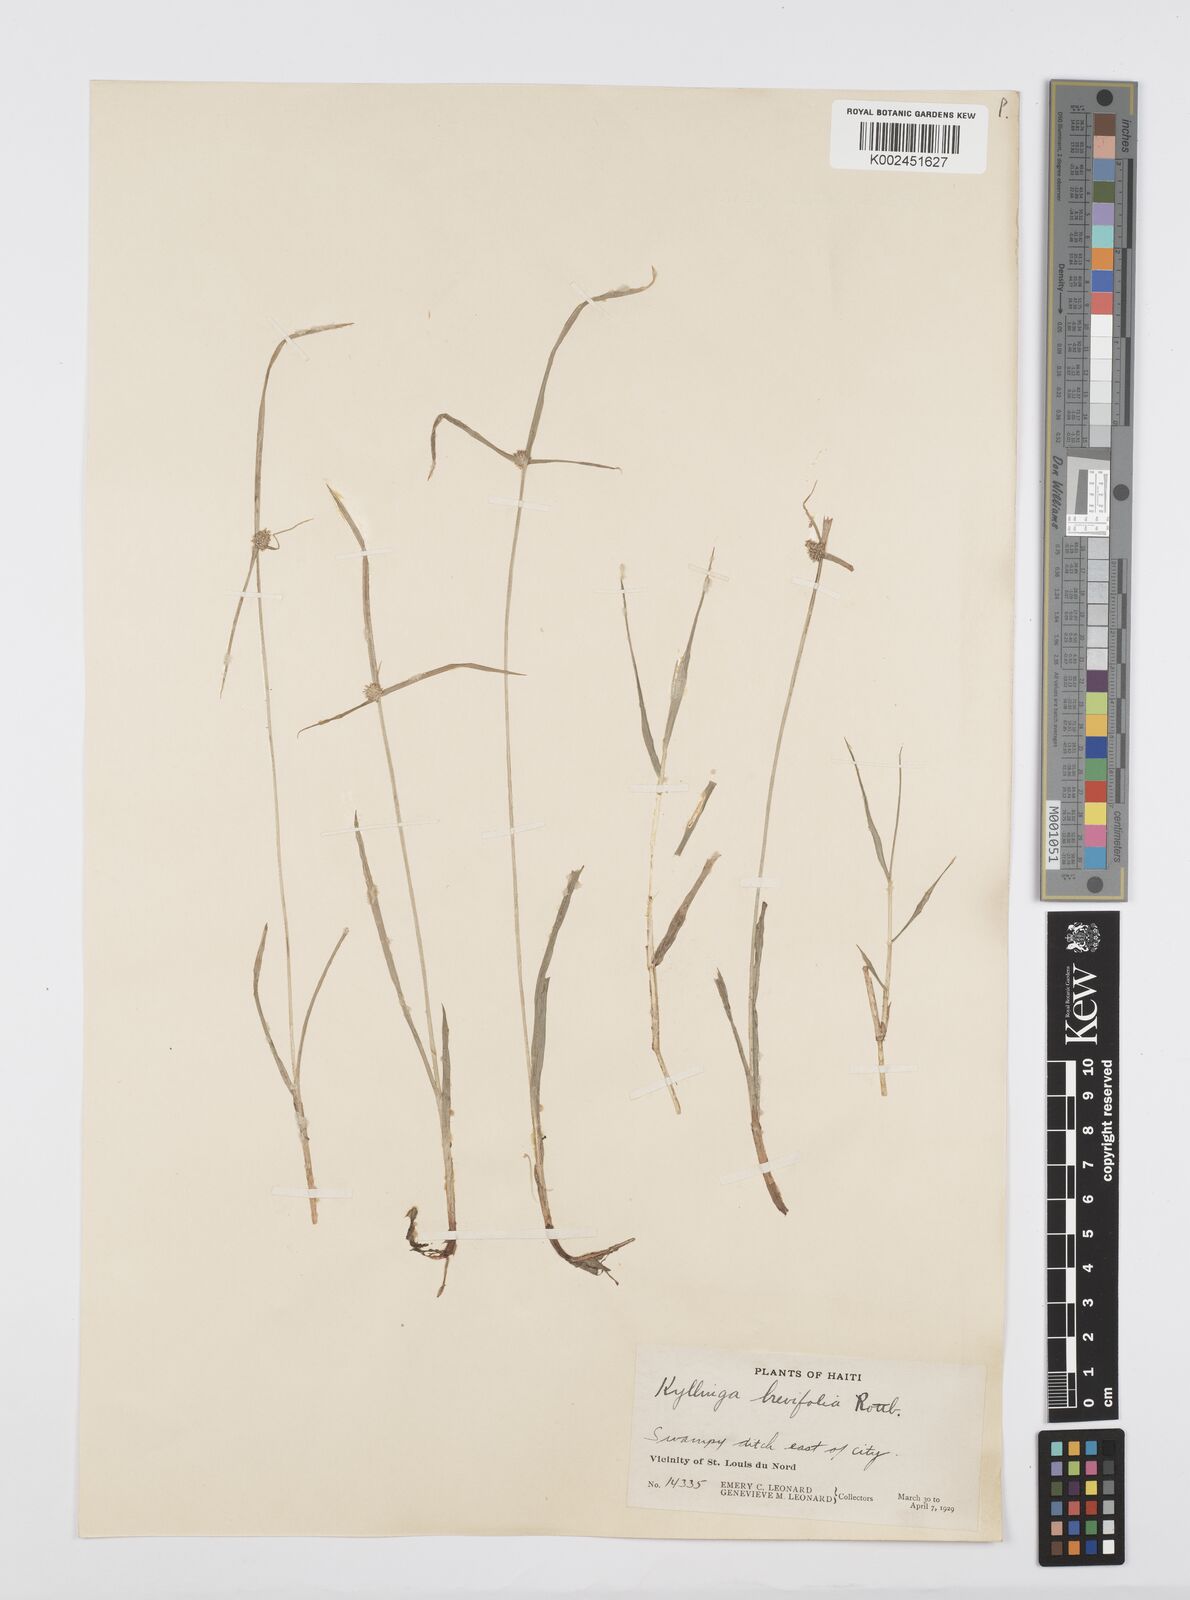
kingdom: Plantae
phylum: Tracheophyta
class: Liliopsida
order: Poales
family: Cyperaceae
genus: Cyperus
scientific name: Cyperus brevifolius
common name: Globe kyllinga
